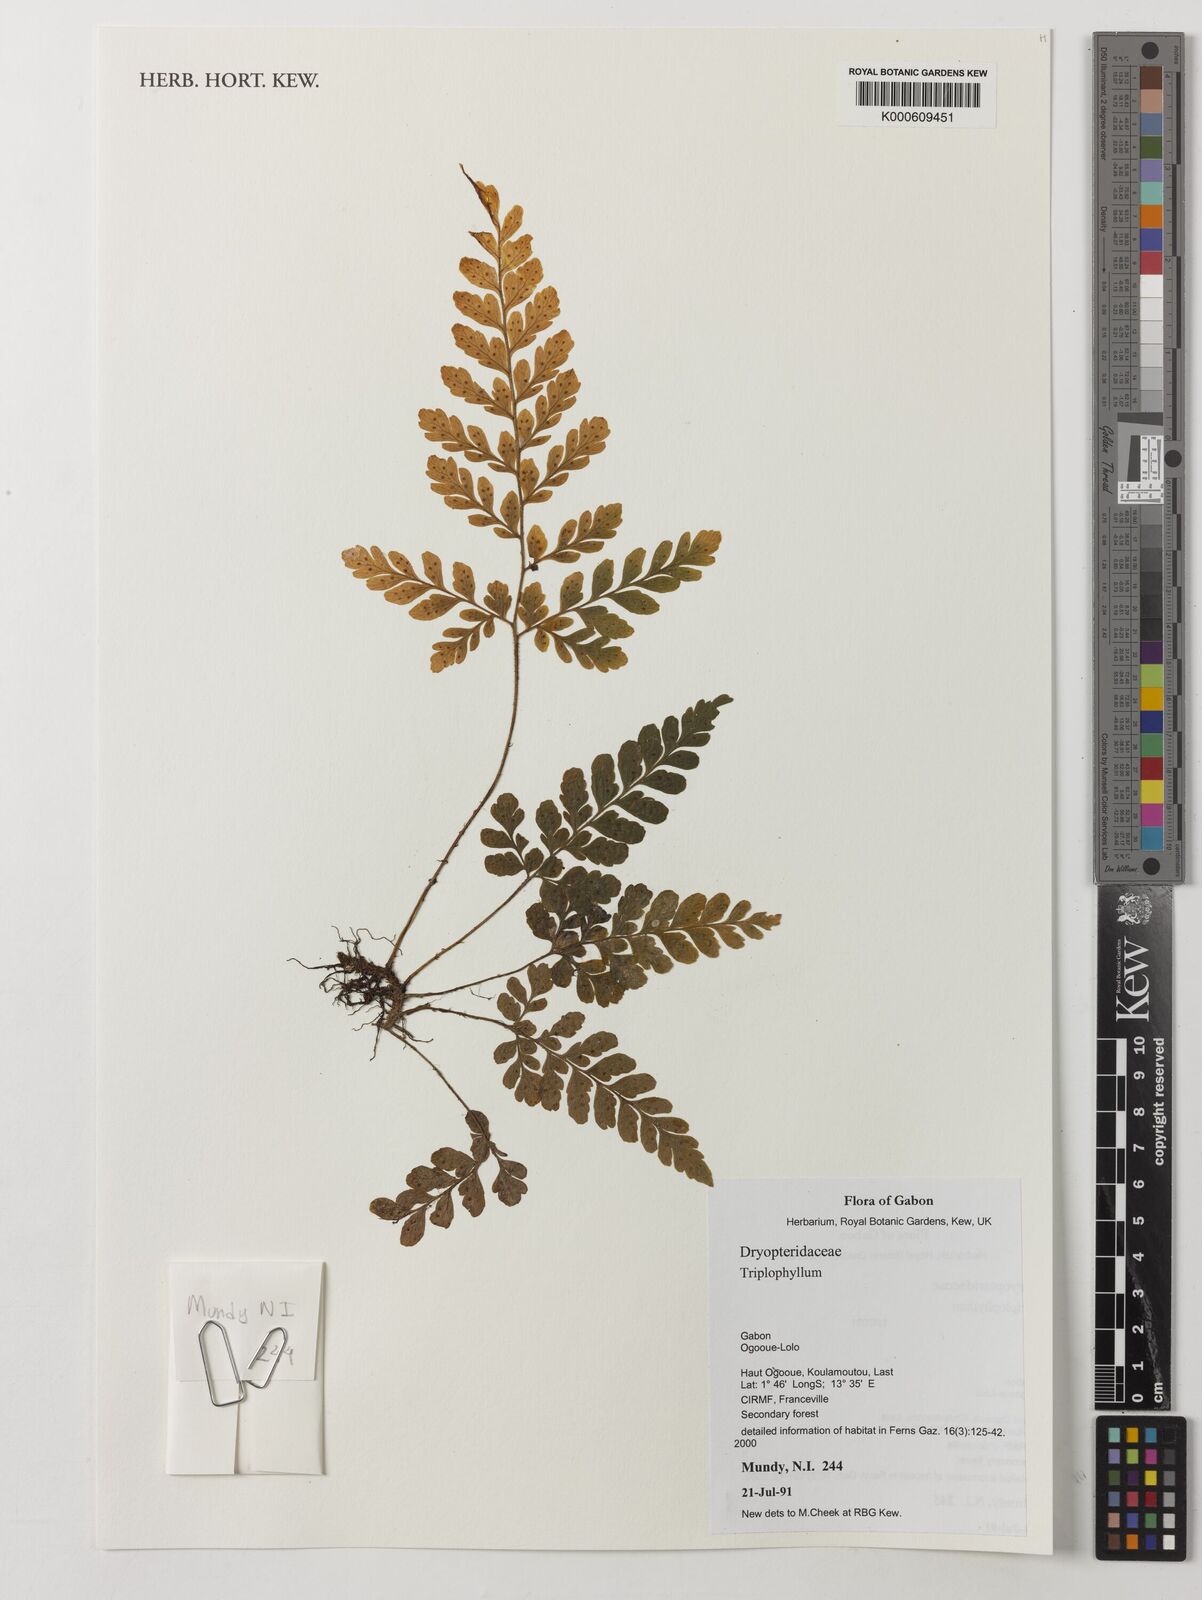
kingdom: Plantae
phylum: Tracheophyta
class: Polypodiopsida
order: Polypodiales
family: Tectariaceae
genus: Triplophyllum
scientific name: Triplophyllum
